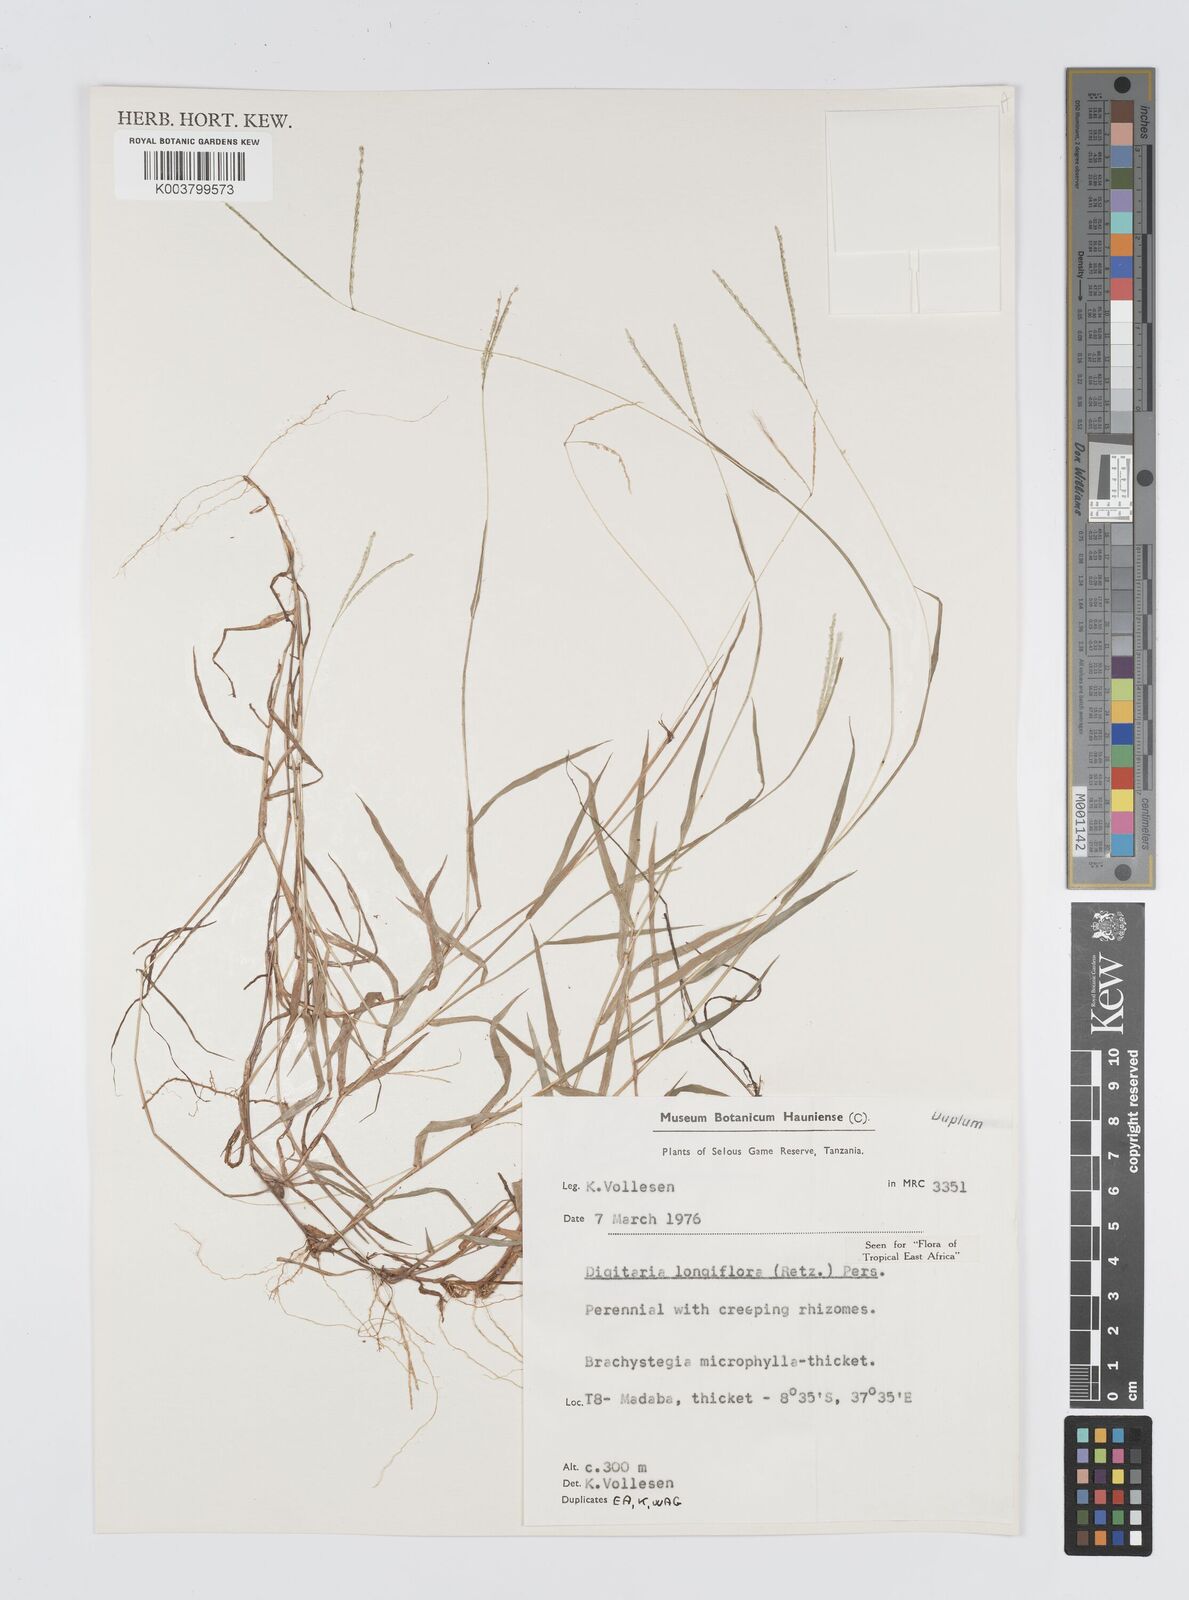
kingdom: Plantae
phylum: Tracheophyta
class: Liliopsida
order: Poales
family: Poaceae
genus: Digitaria
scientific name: Digitaria longiflora
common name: Wire crabgrass
